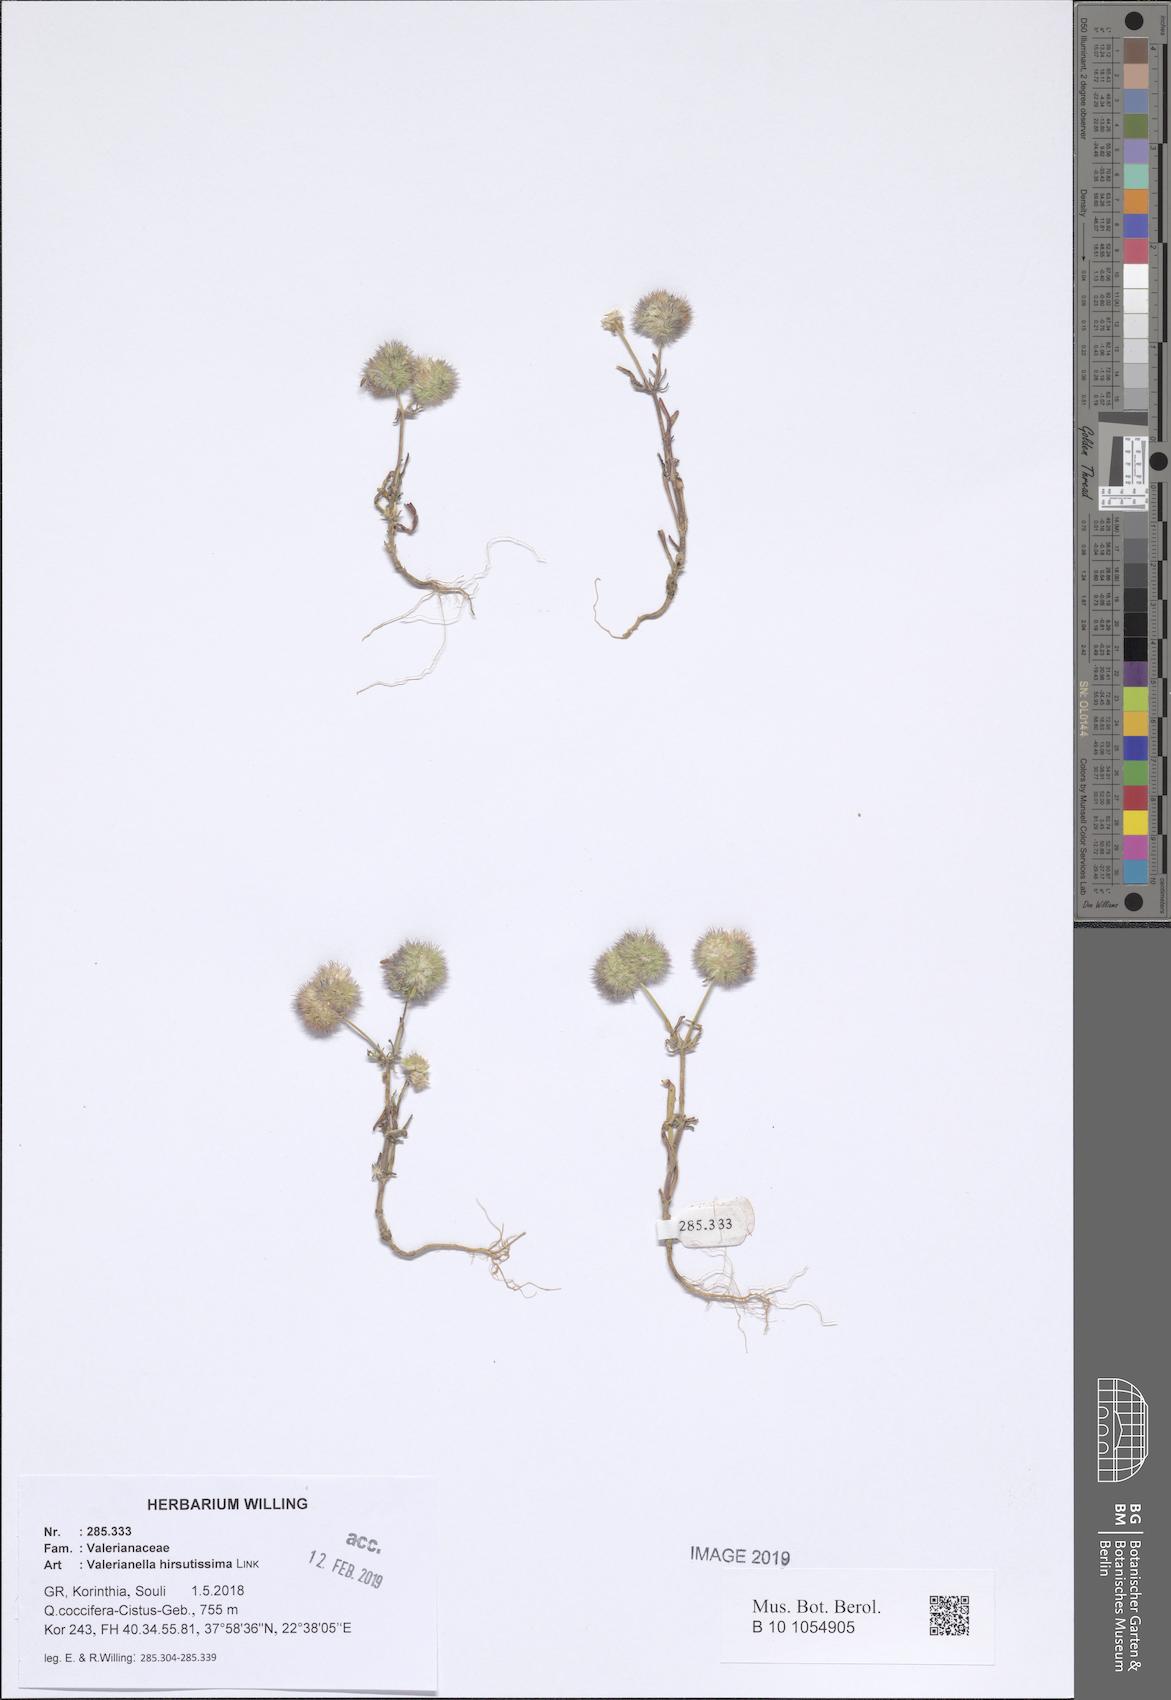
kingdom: Plantae
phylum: Tracheophyta
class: Magnoliopsida
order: Dipsacales
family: Caprifoliaceae
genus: Valerianella
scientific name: Valerianella hirsutissima
